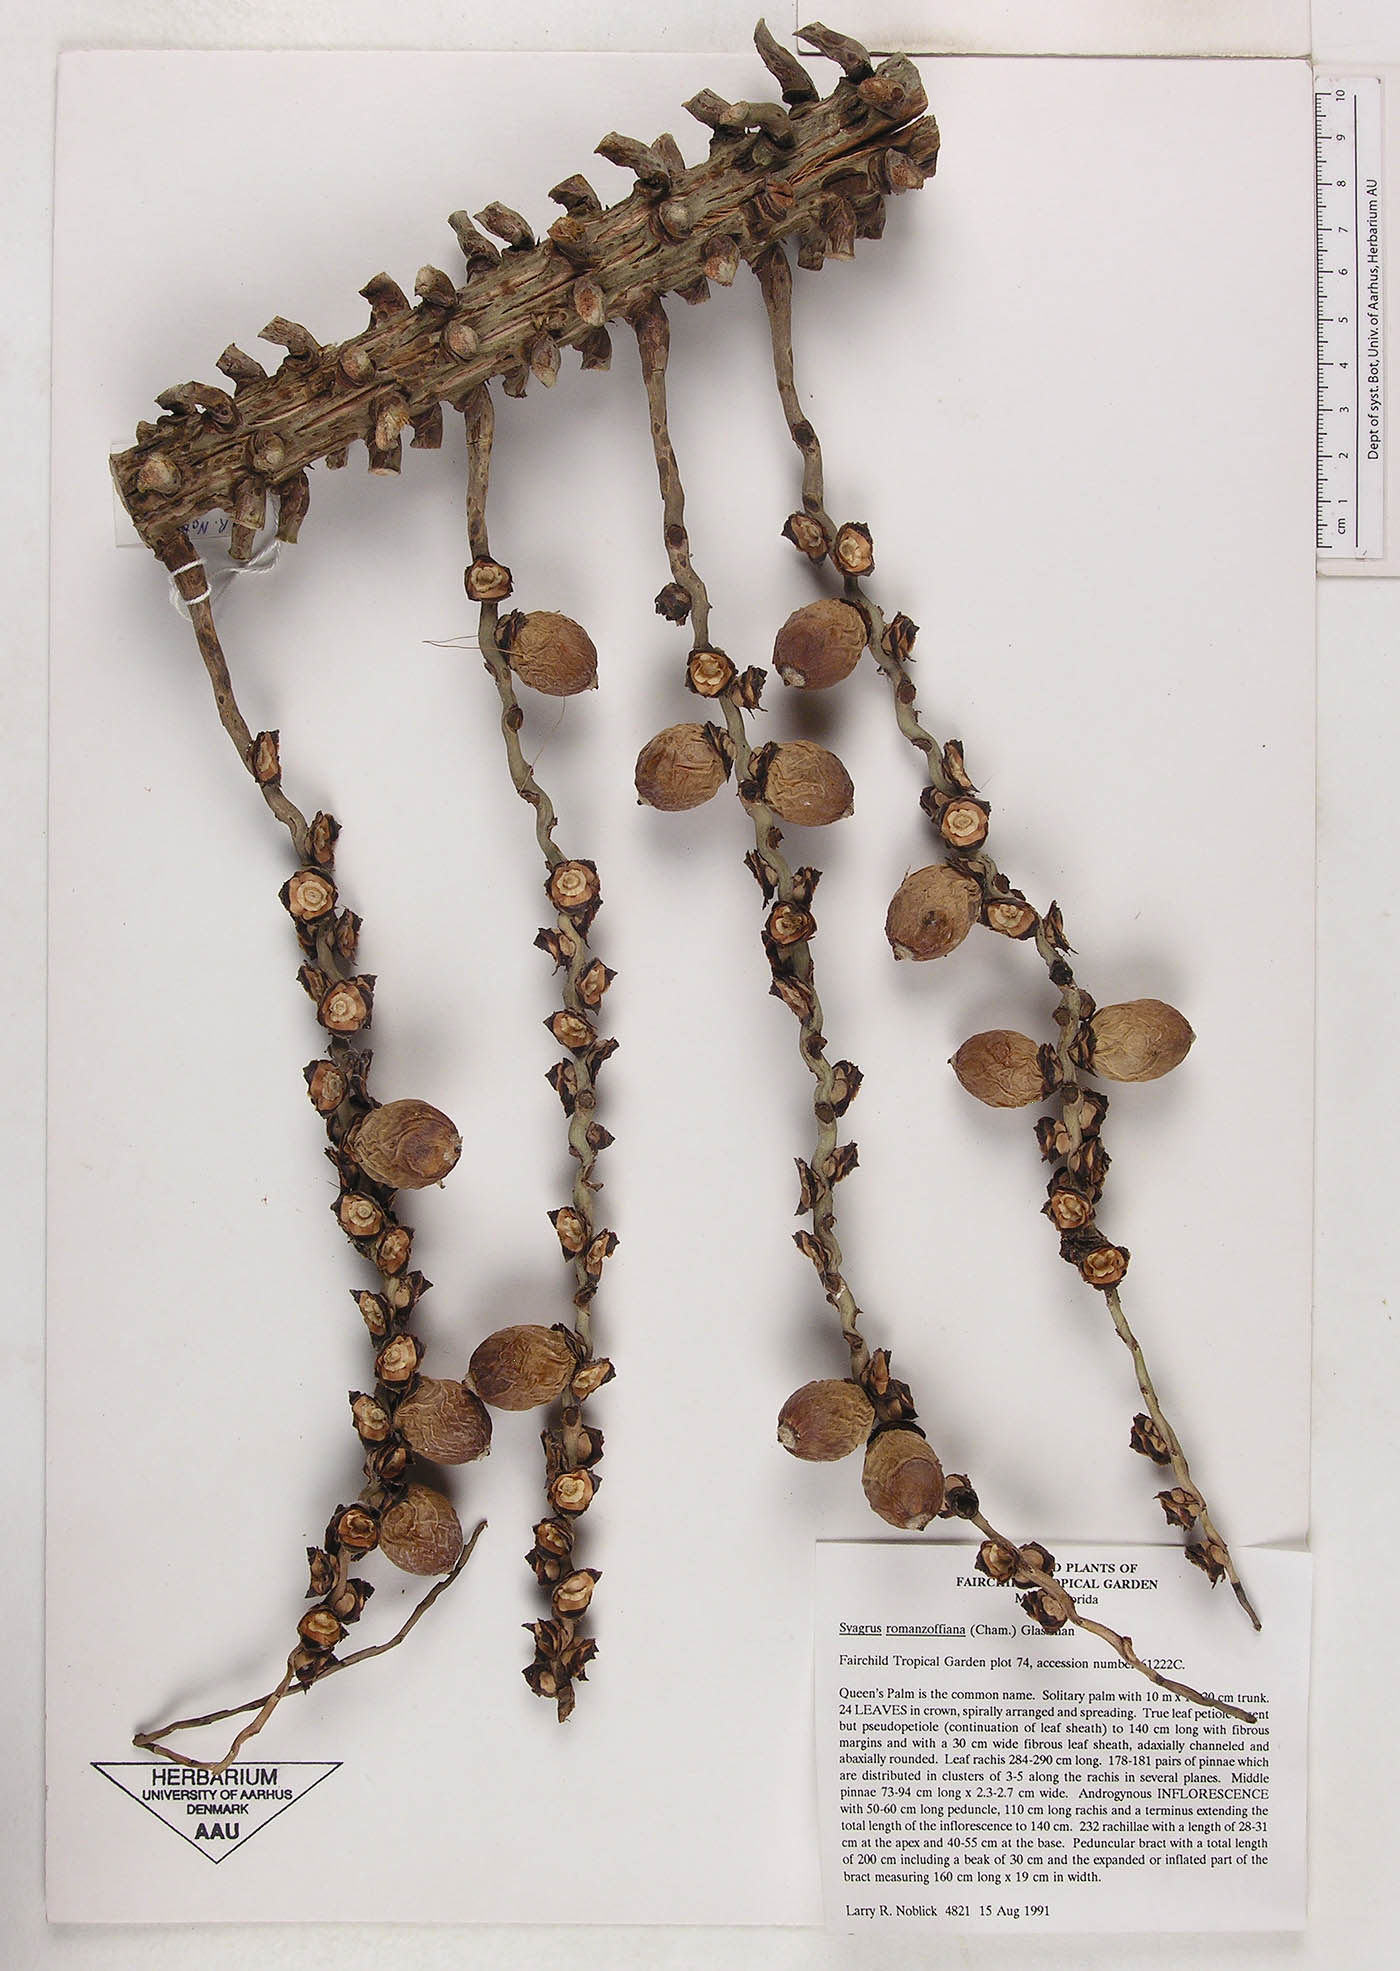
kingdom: Plantae
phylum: Tracheophyta
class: Liliopsida
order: Arecales
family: Arecaceae
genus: Syagrus
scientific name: Syagrus romanzoffiana
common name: Queen palm
